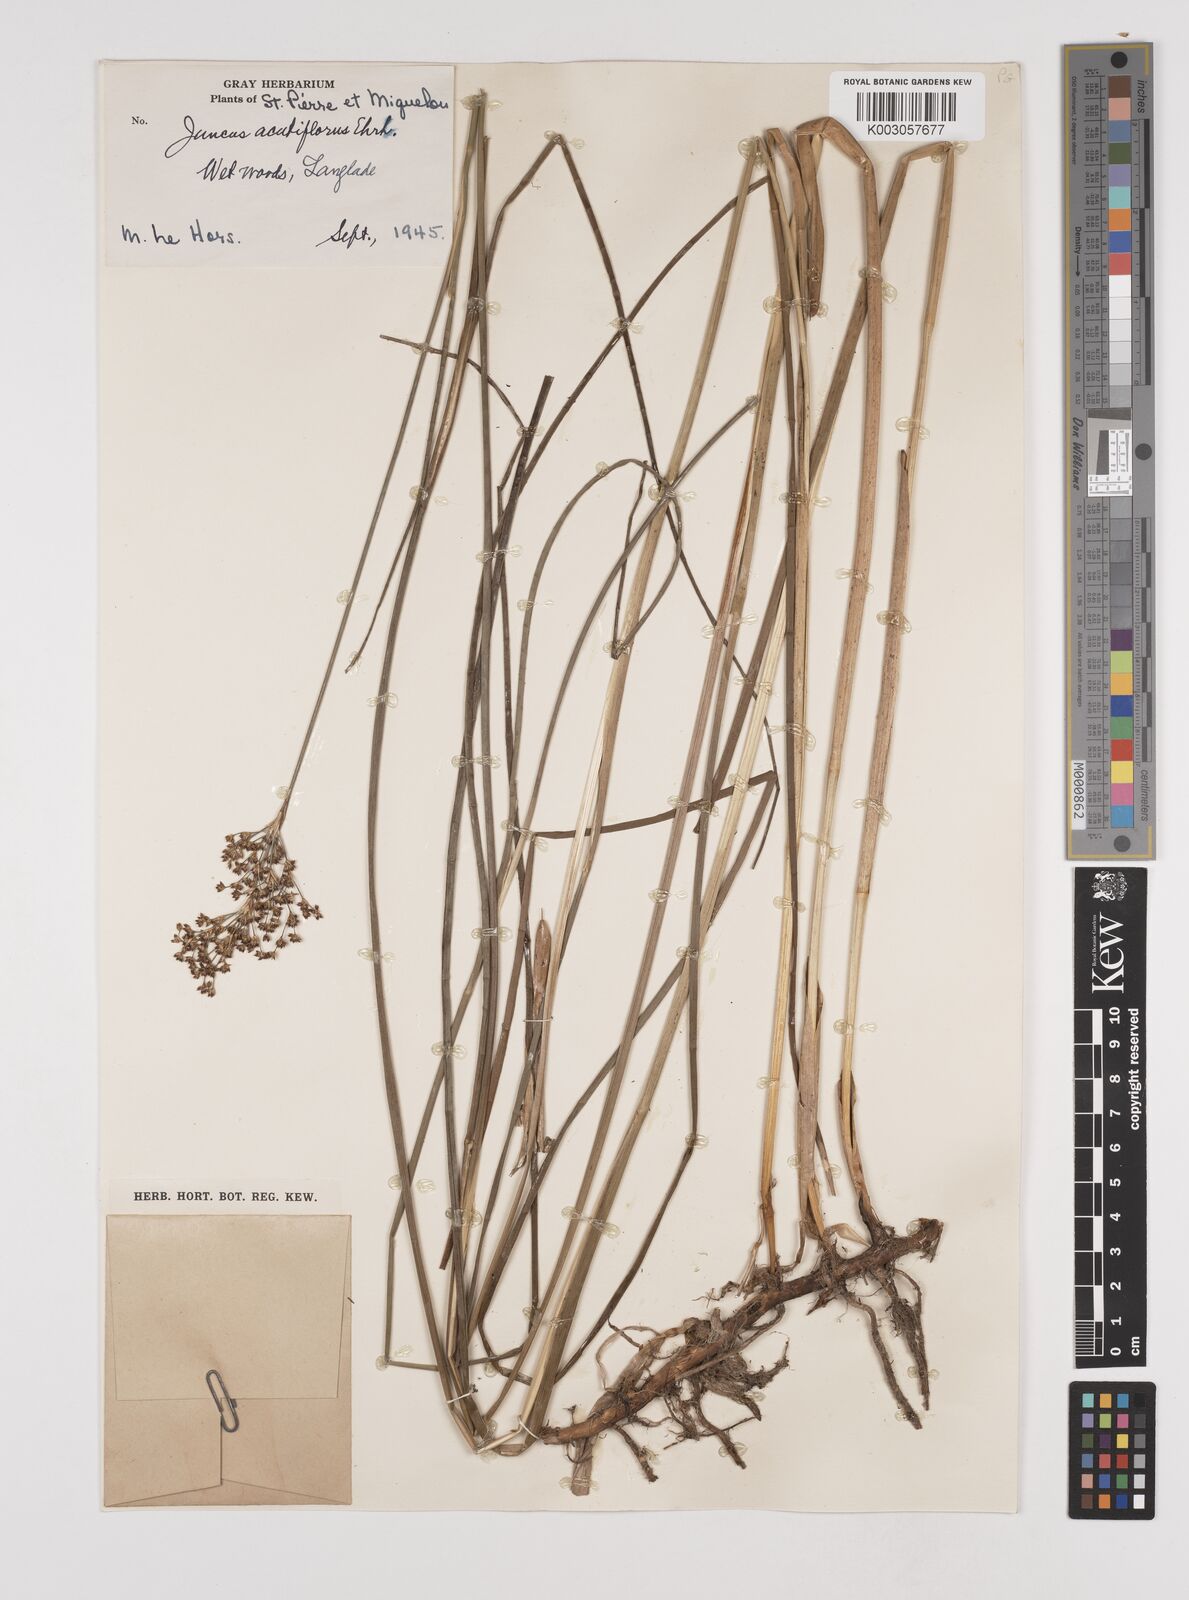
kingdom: Plantae
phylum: Tracheophyta
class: Liliopsida
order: Poales
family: Juncaceae
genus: Juncus
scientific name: Juncus acutiflorus
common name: Sharp-flowered rush
